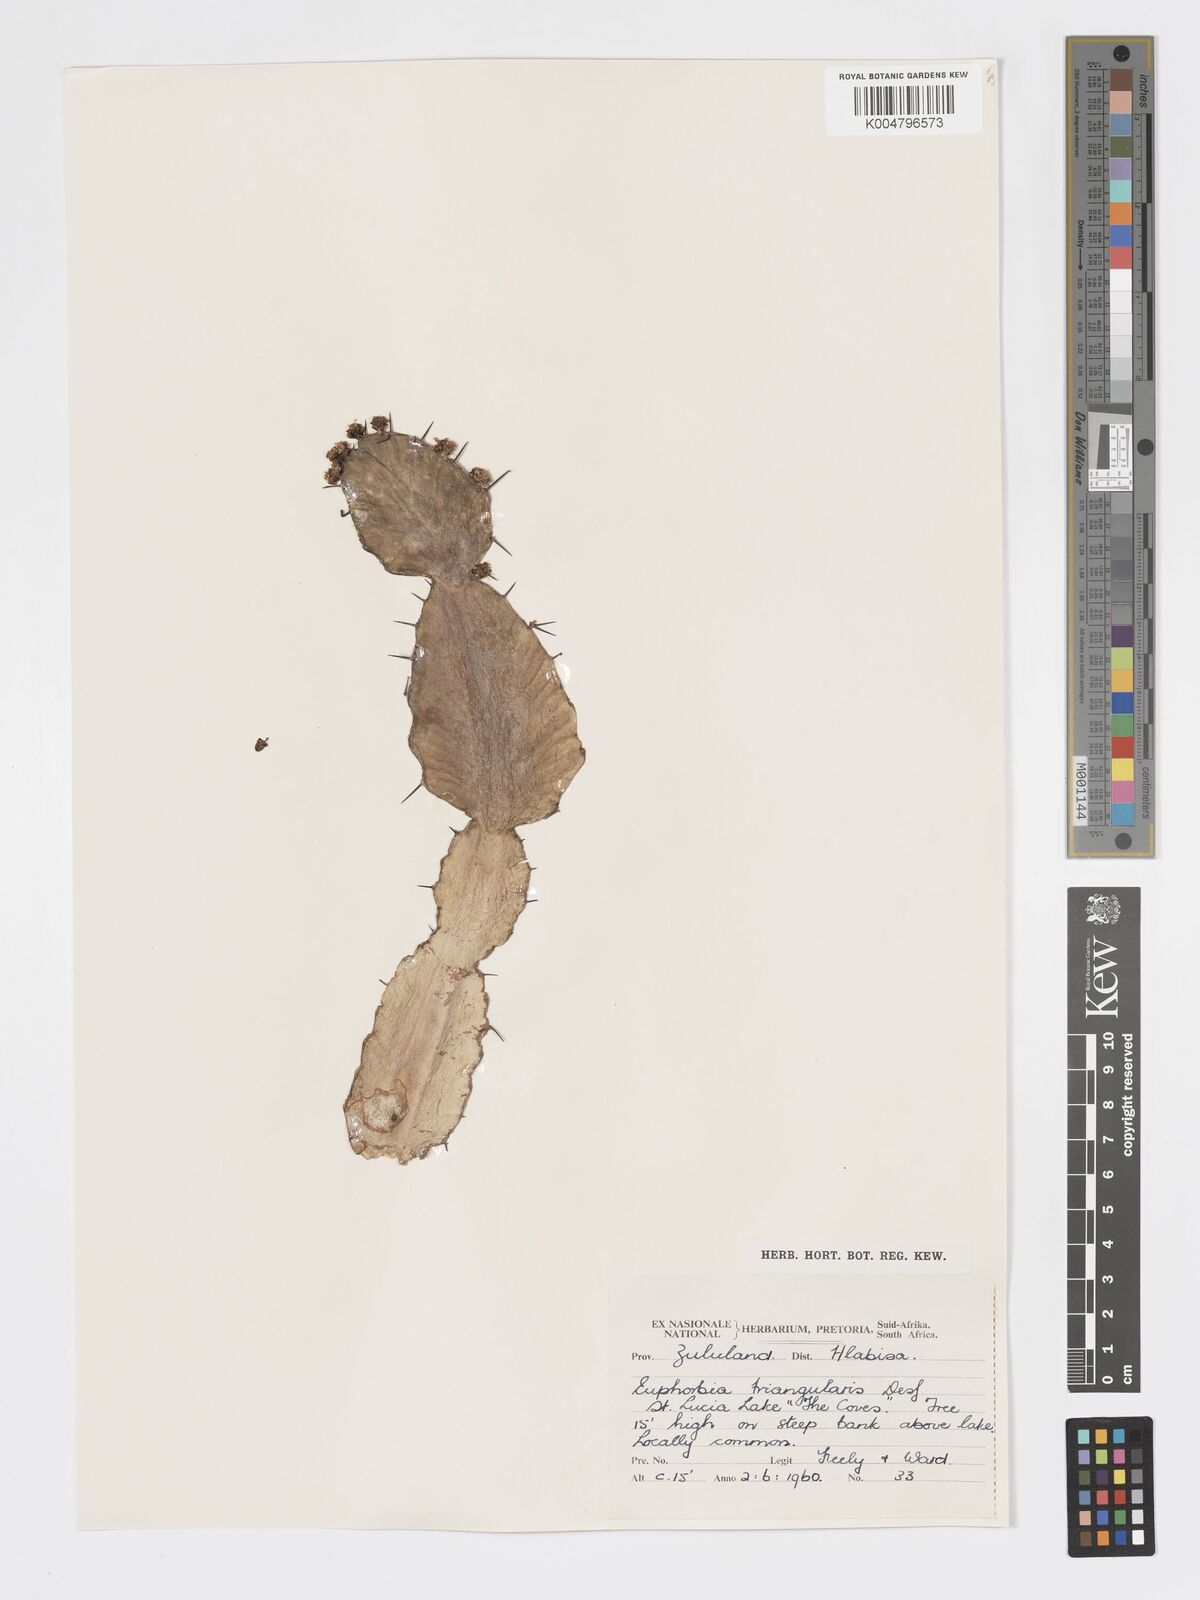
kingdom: Plantae
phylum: Tracheophyta
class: Magnoliopsida
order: Malpighiales
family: Euphorbiaceae
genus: Euphorbia
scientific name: Euphorbia triangularis
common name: Chandelier tree
